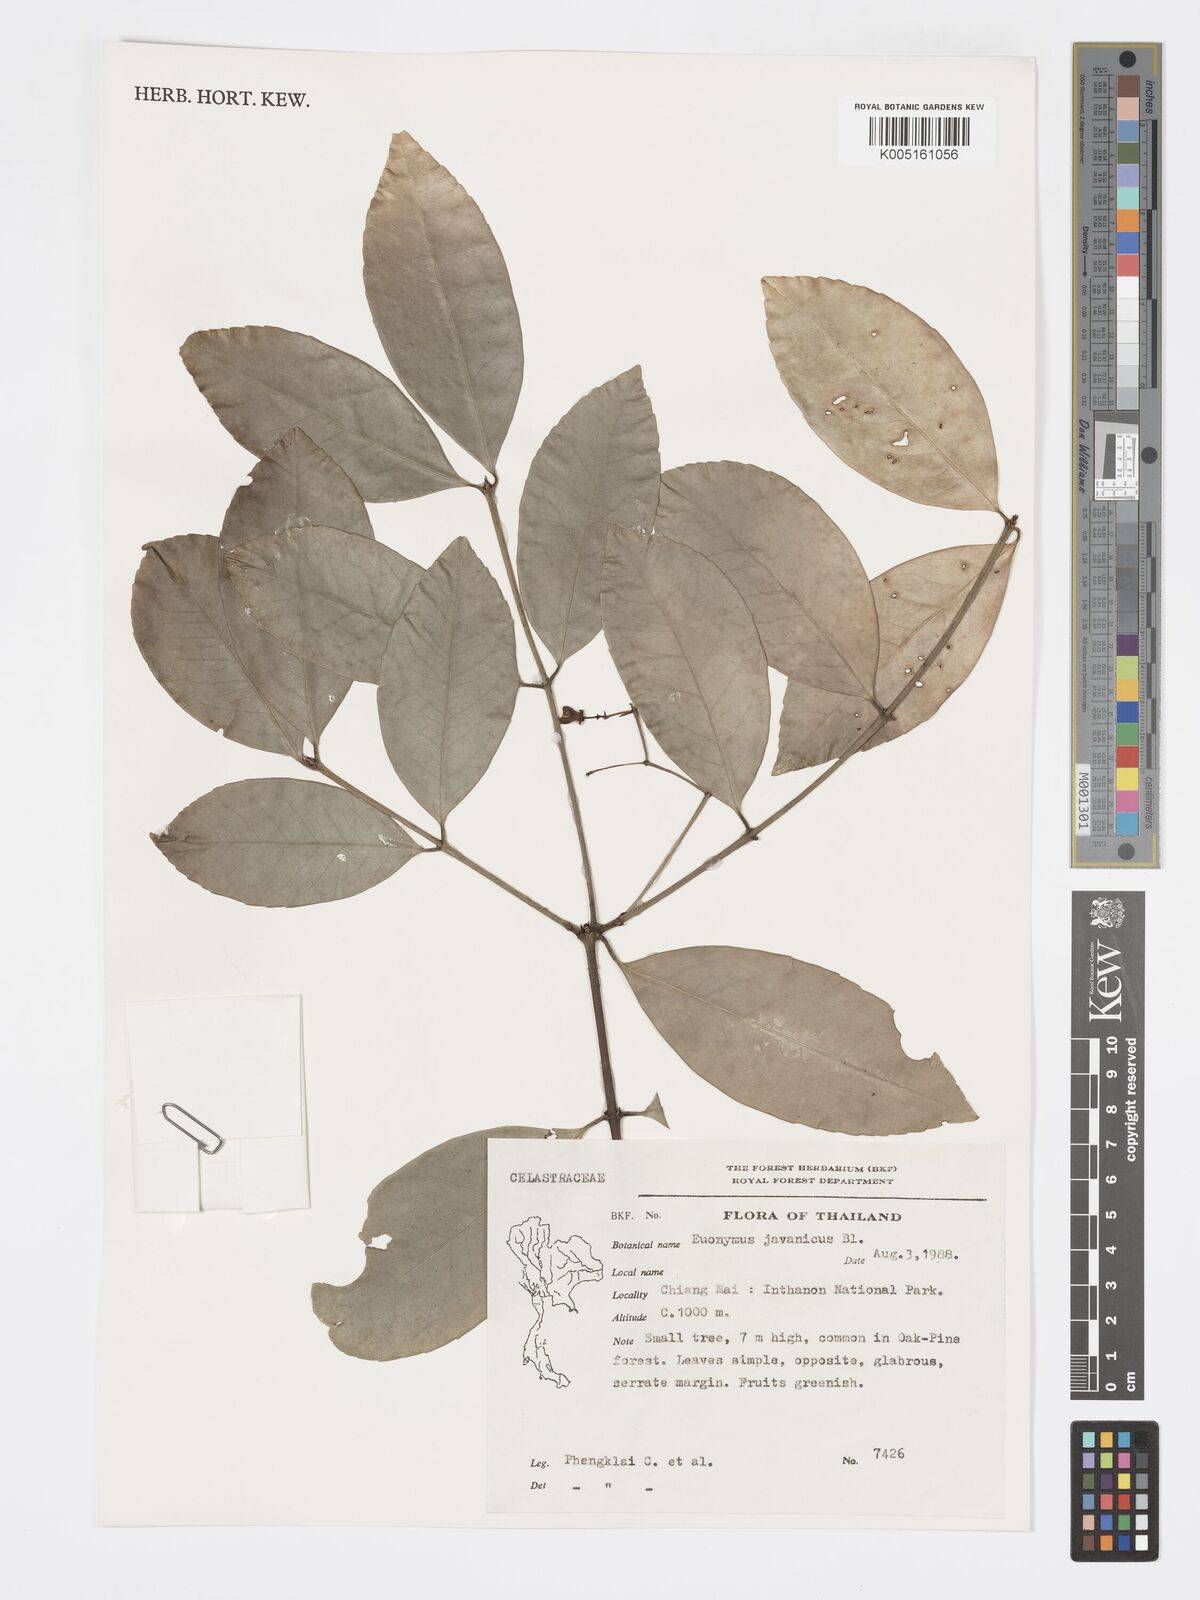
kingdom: Plantae
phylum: Tracheophyta
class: Magnoliopsida
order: Celastrales
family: Celastraceae
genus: Euonymus
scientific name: Euonymus indicus
